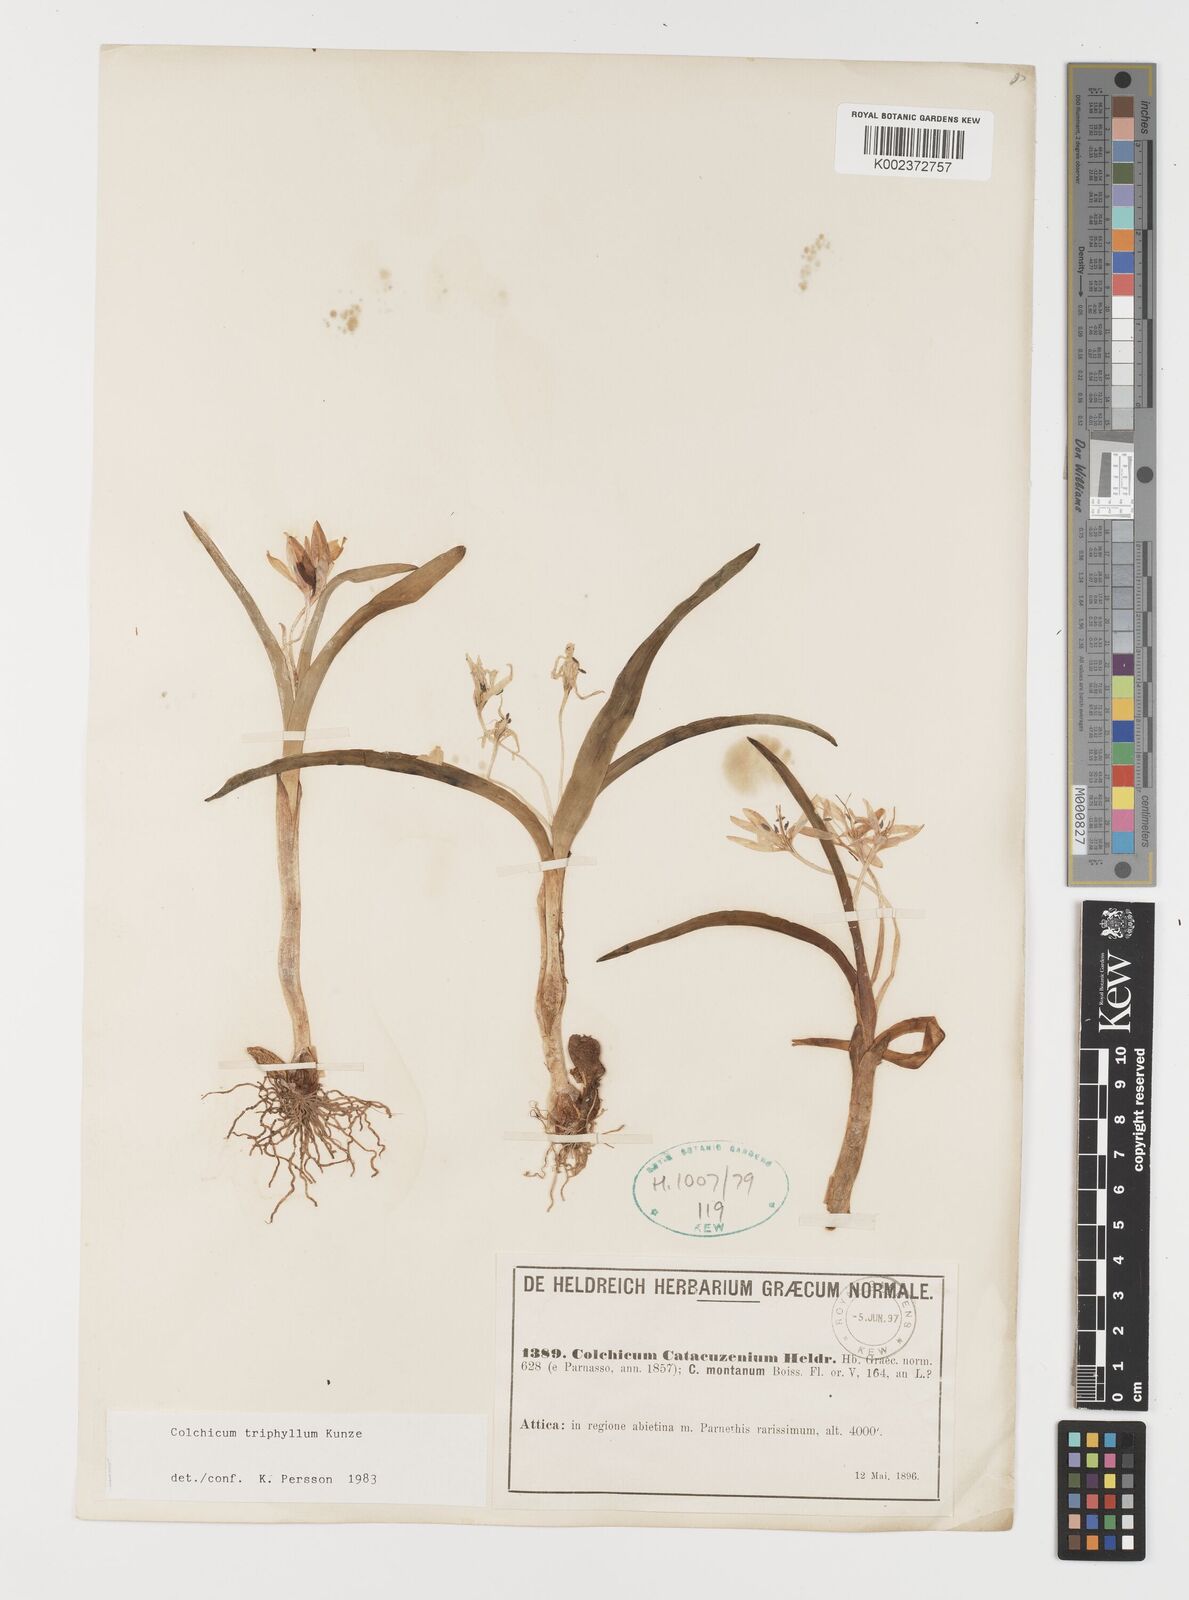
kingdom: Plantae
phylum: Tracheophyta
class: Liliopsida
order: Liliales
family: Colchicaceae
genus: Colchicum
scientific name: Colchicum triphyllum
